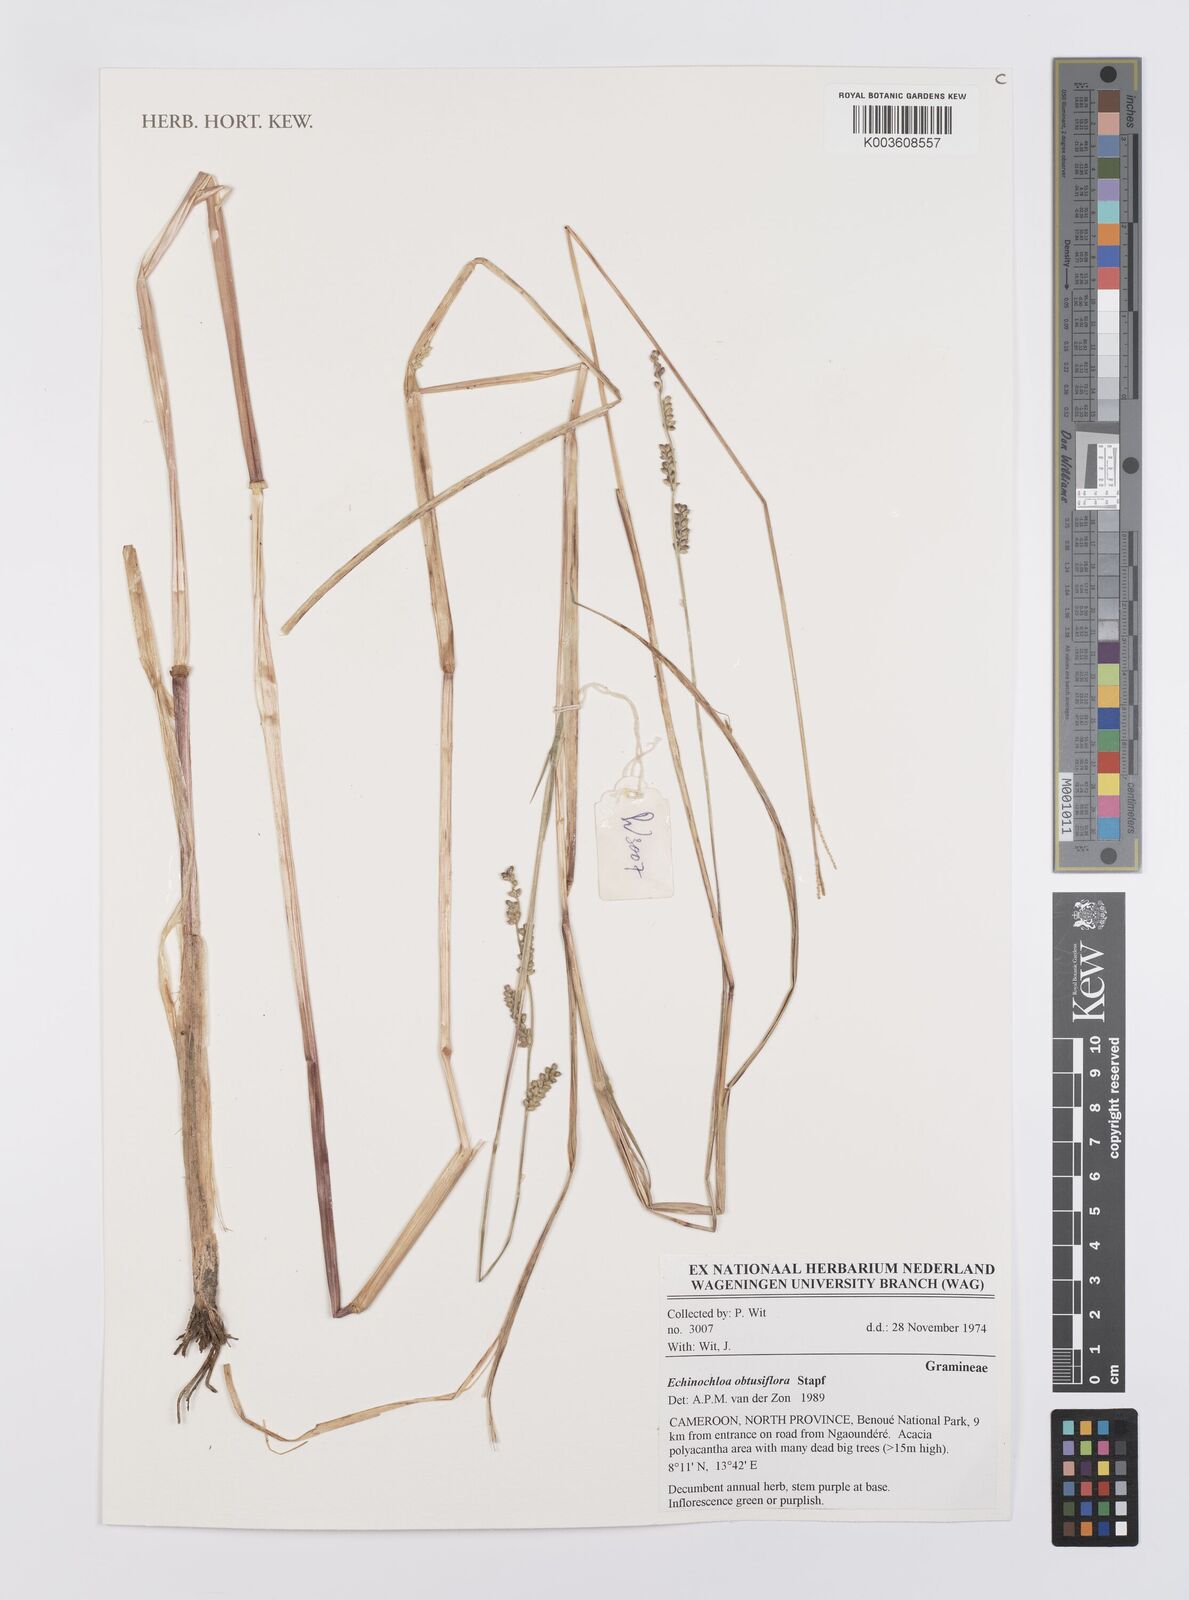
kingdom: Plantae
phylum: Tracheophyta
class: Liliopsida
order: Poales
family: Poaceae
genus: Echinochloa
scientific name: Echinochloa obtusiflora
